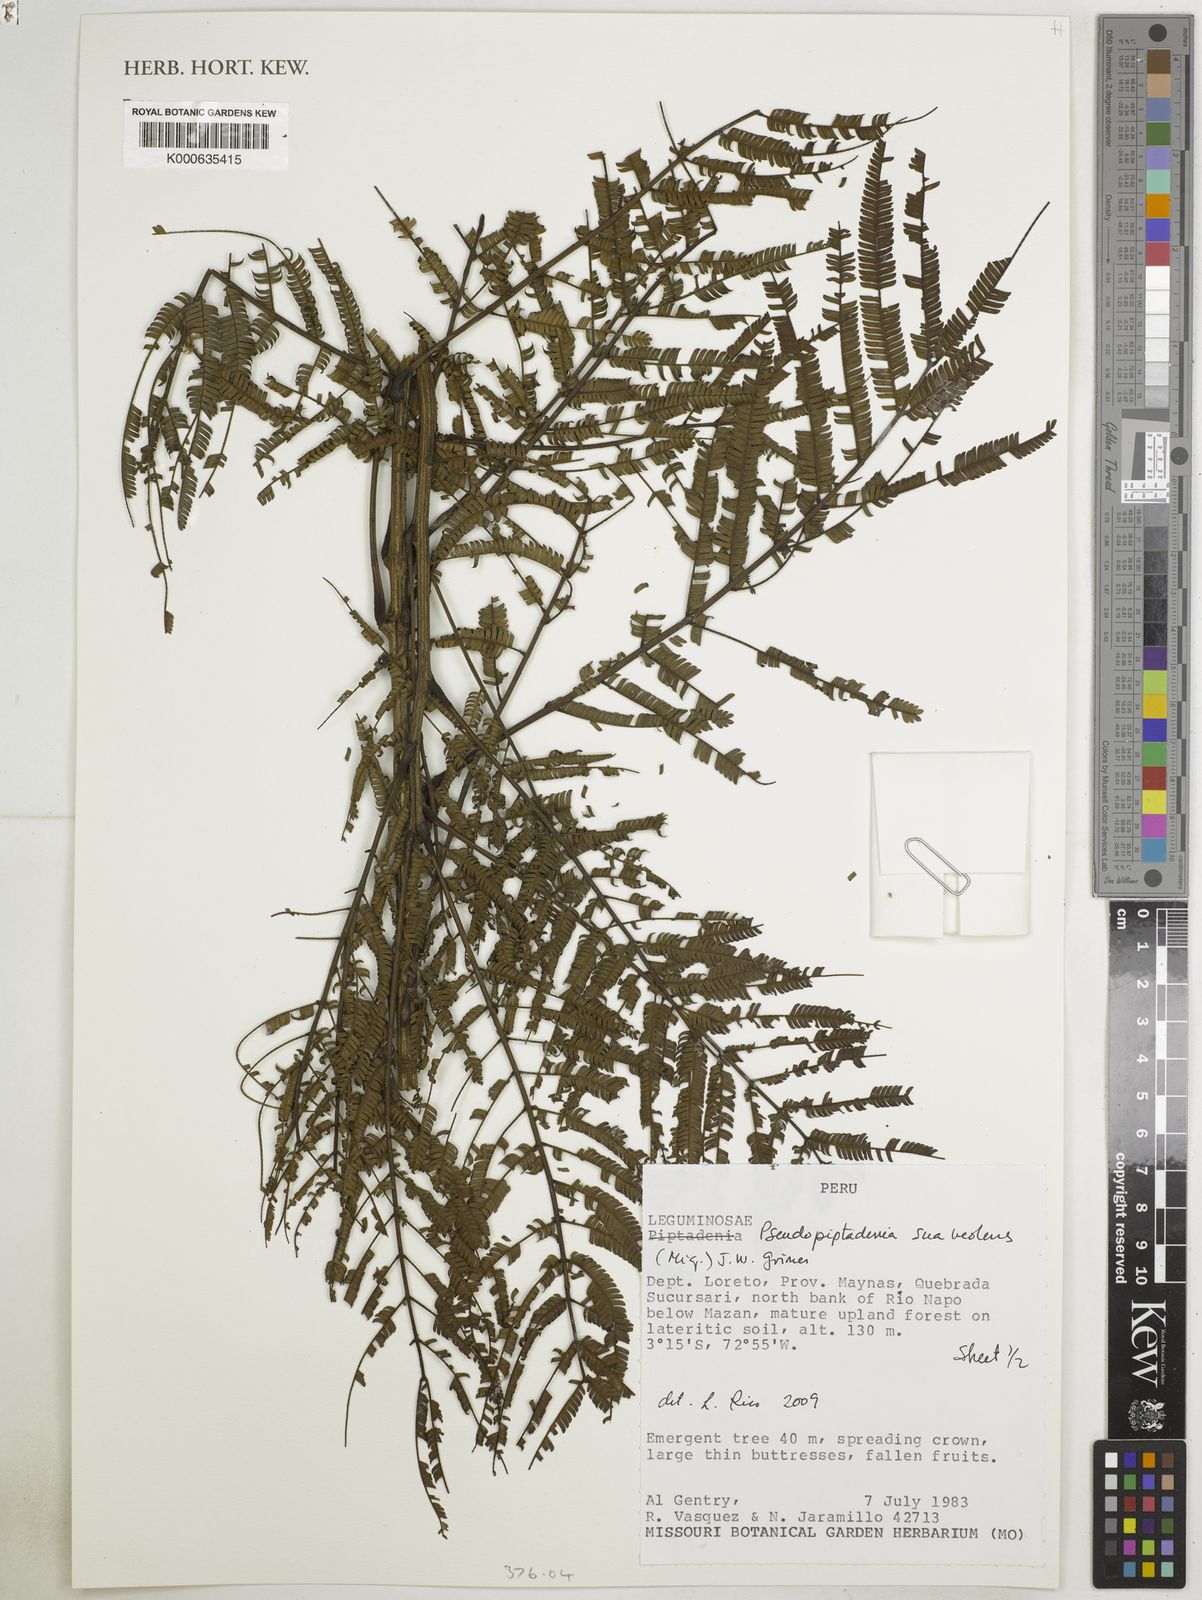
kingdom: Plantae
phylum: Tracheophyta
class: Magnoliopsida
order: Fabales
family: Fabaceae
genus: Pseudopiptadenia
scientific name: Pseudopiptadenia suaveolens
